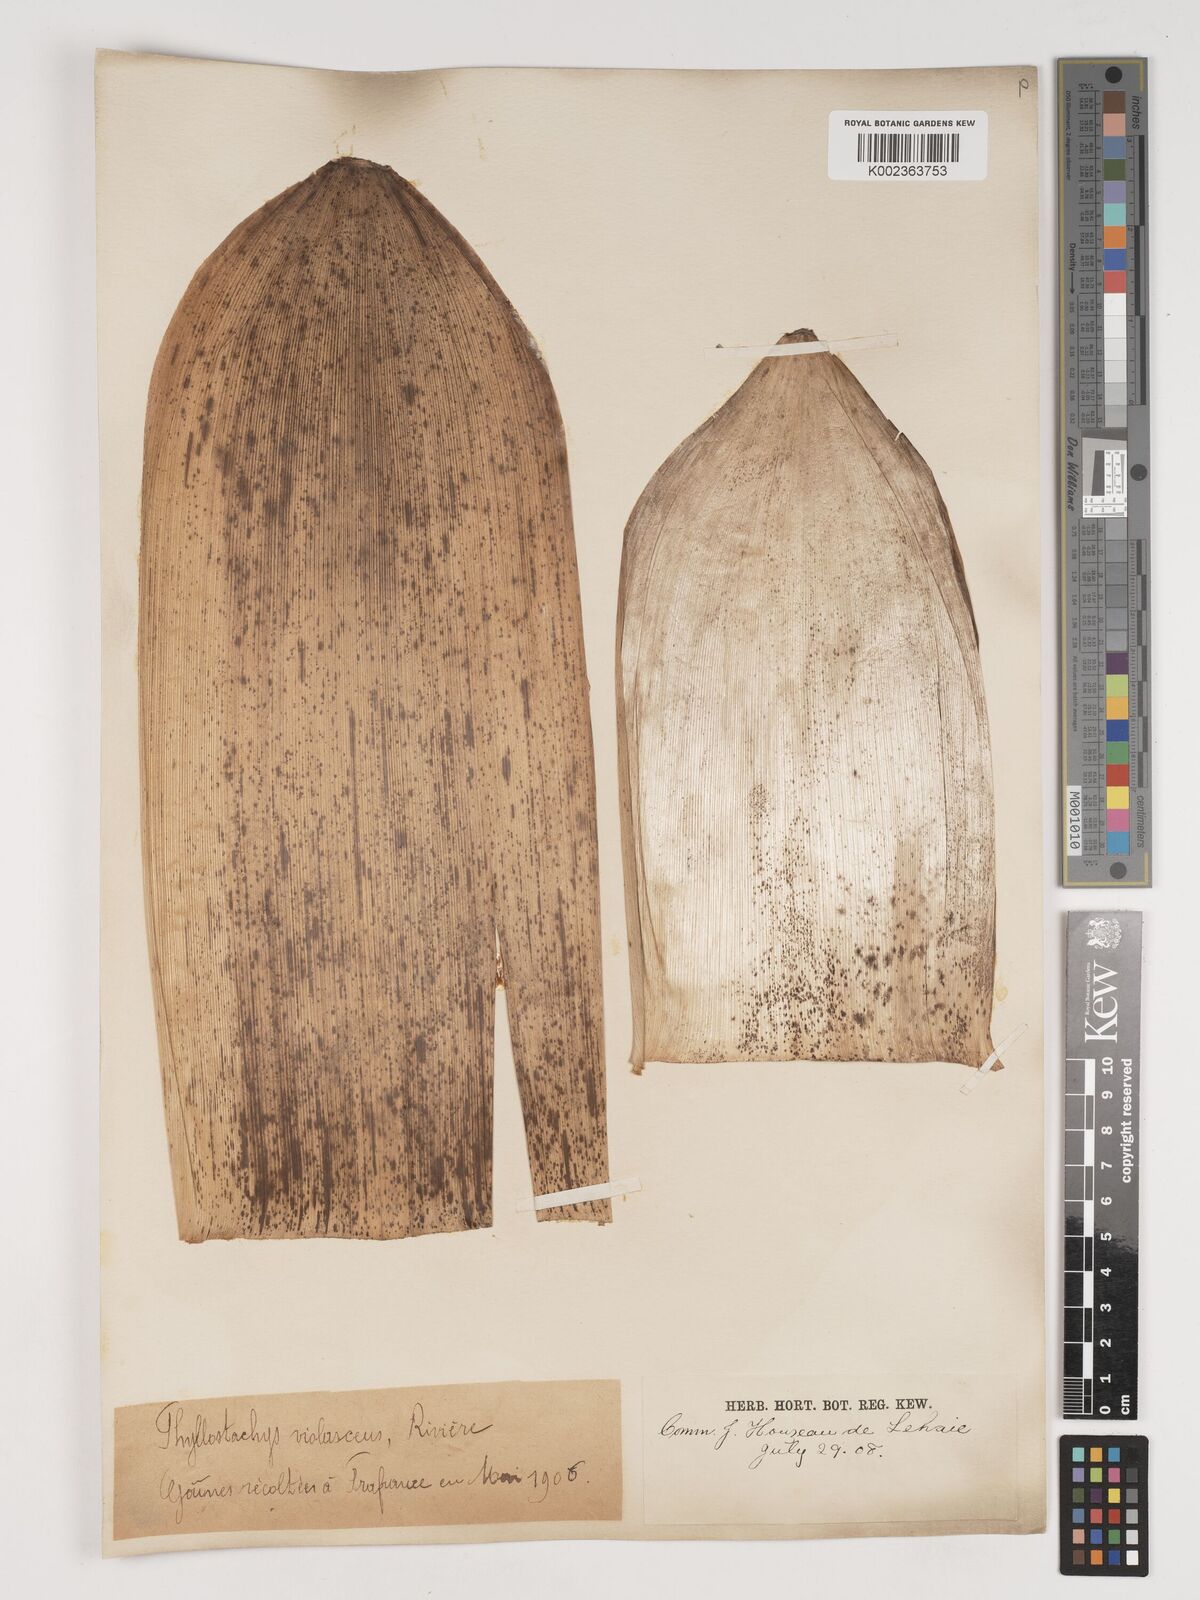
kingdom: Plantae
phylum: Tracheophyta
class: Liliopsida
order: Poales
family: Poaceae
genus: Phyllostachys
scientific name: Phyllostachys reticulata
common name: Bamboo
